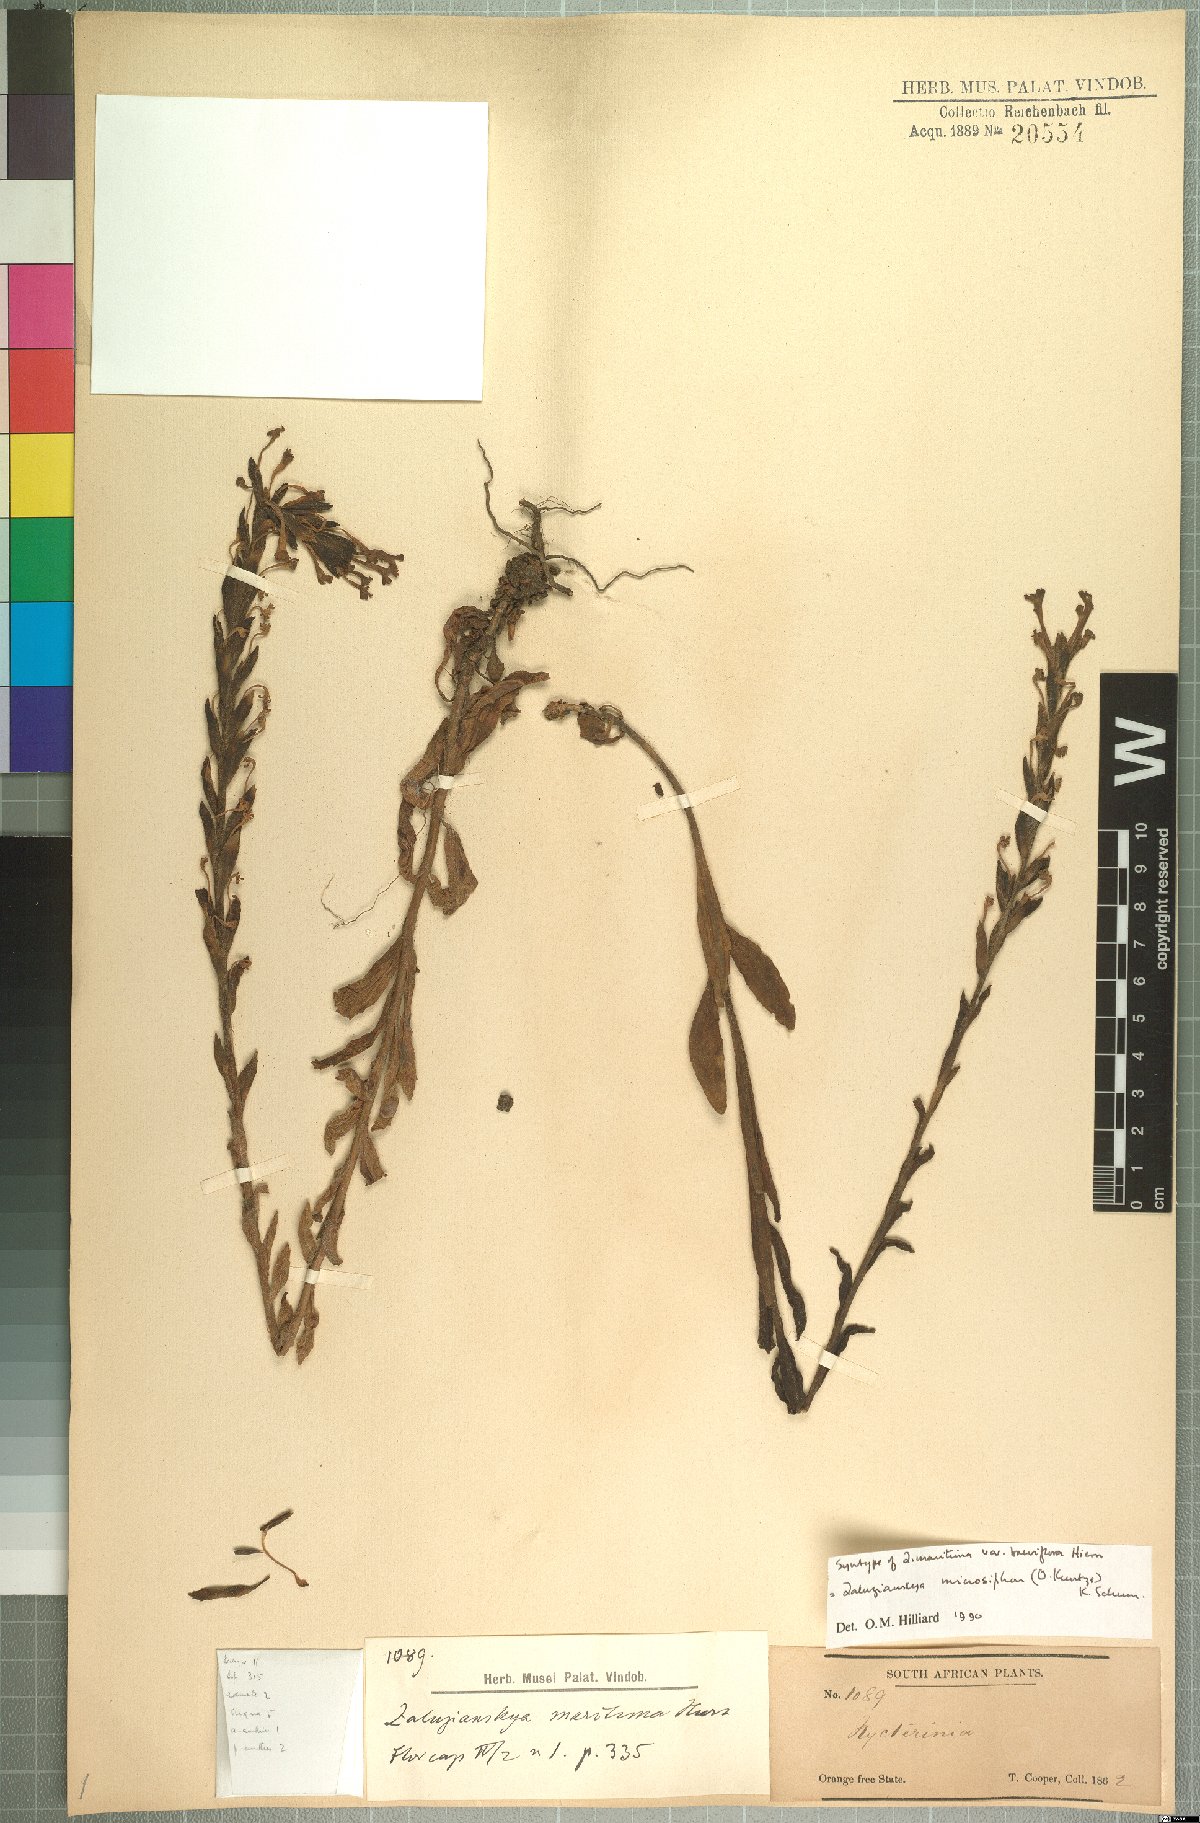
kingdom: Plantae
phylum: Tracheophyta
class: Magnoliopsida
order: Lamiales
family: Scrophulariaceae
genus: Zaluzianskya
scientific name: Zaluzianskya microsiphon
